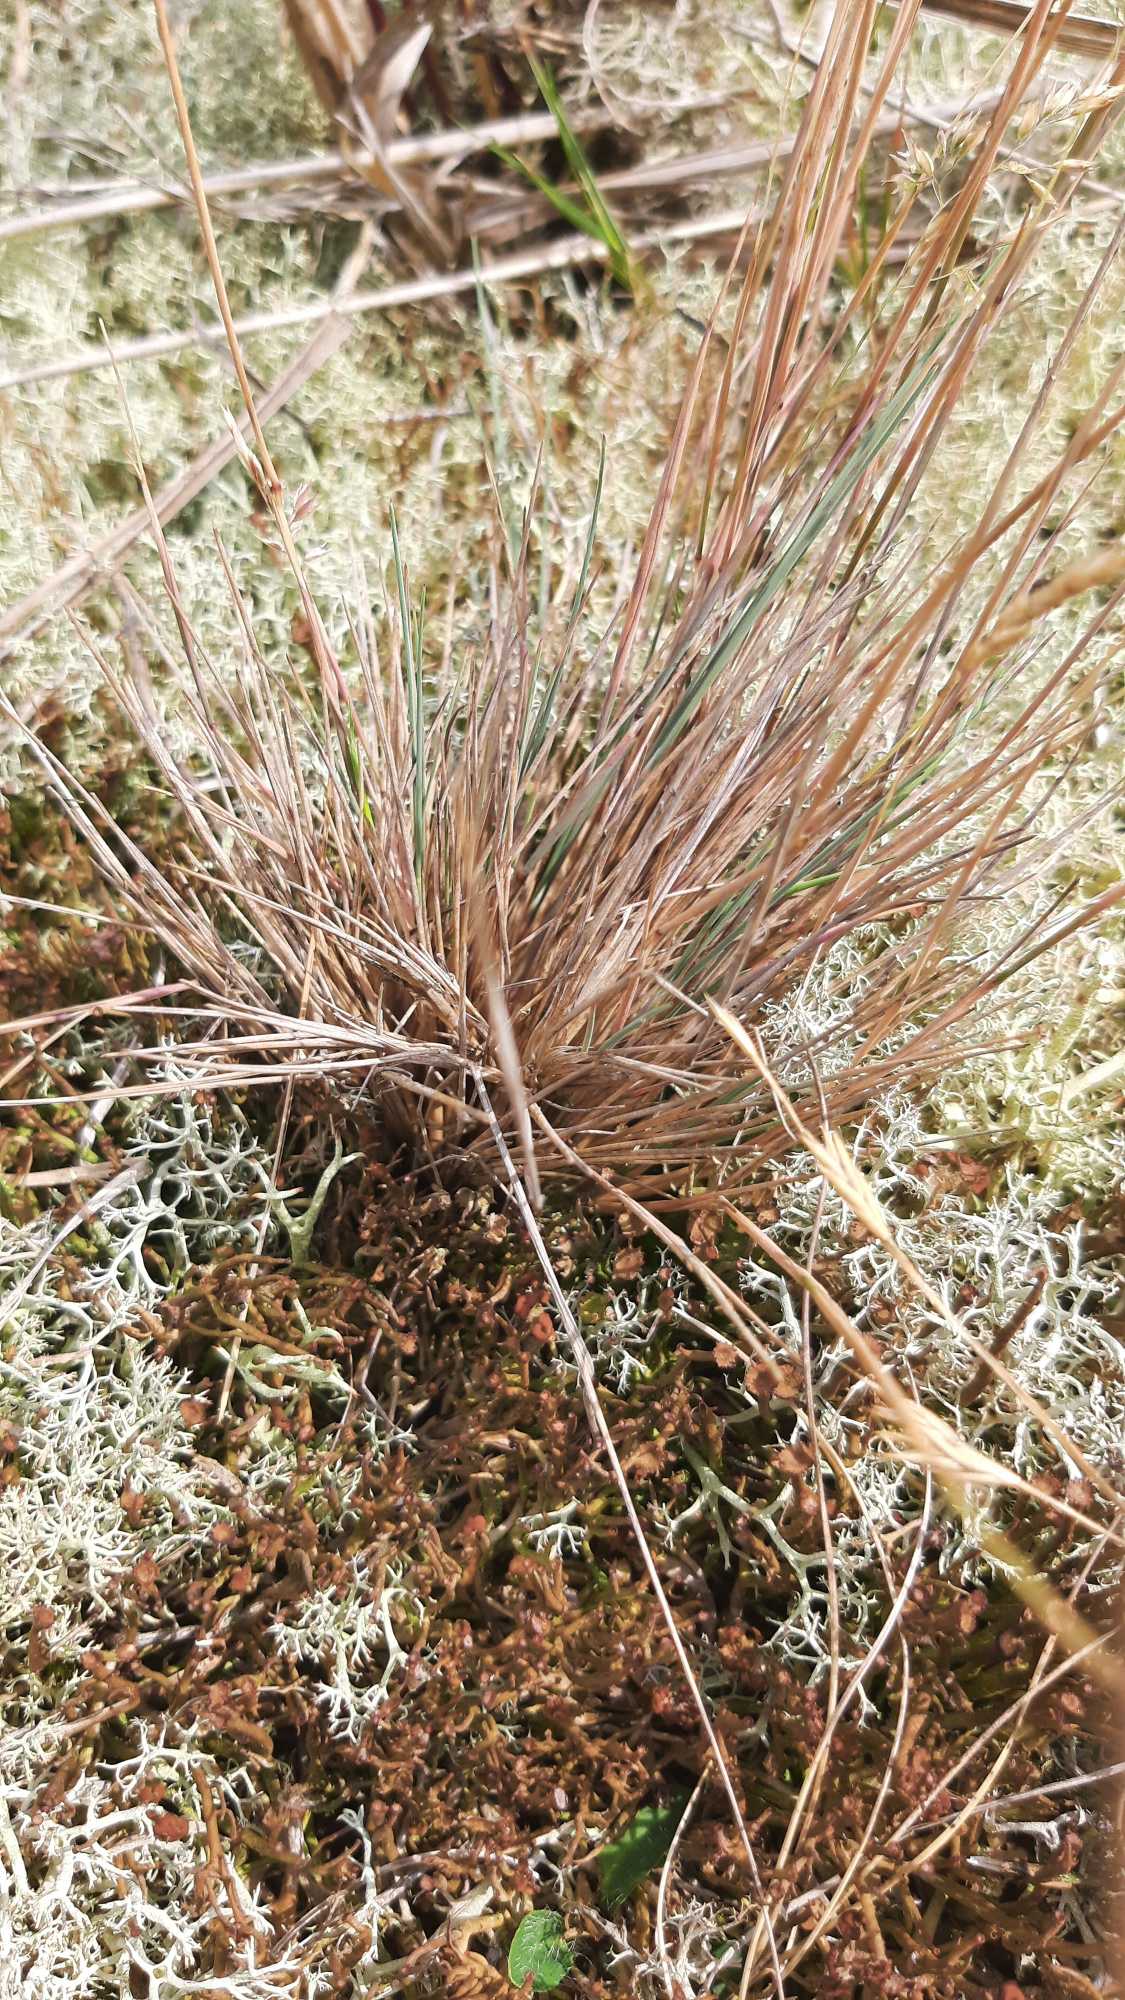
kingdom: Plantae
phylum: Tracheophyta
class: Liliopsida
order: Poales
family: Poaceae
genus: Corynephorus
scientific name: Corynephorus canescens
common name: Sandskæg
